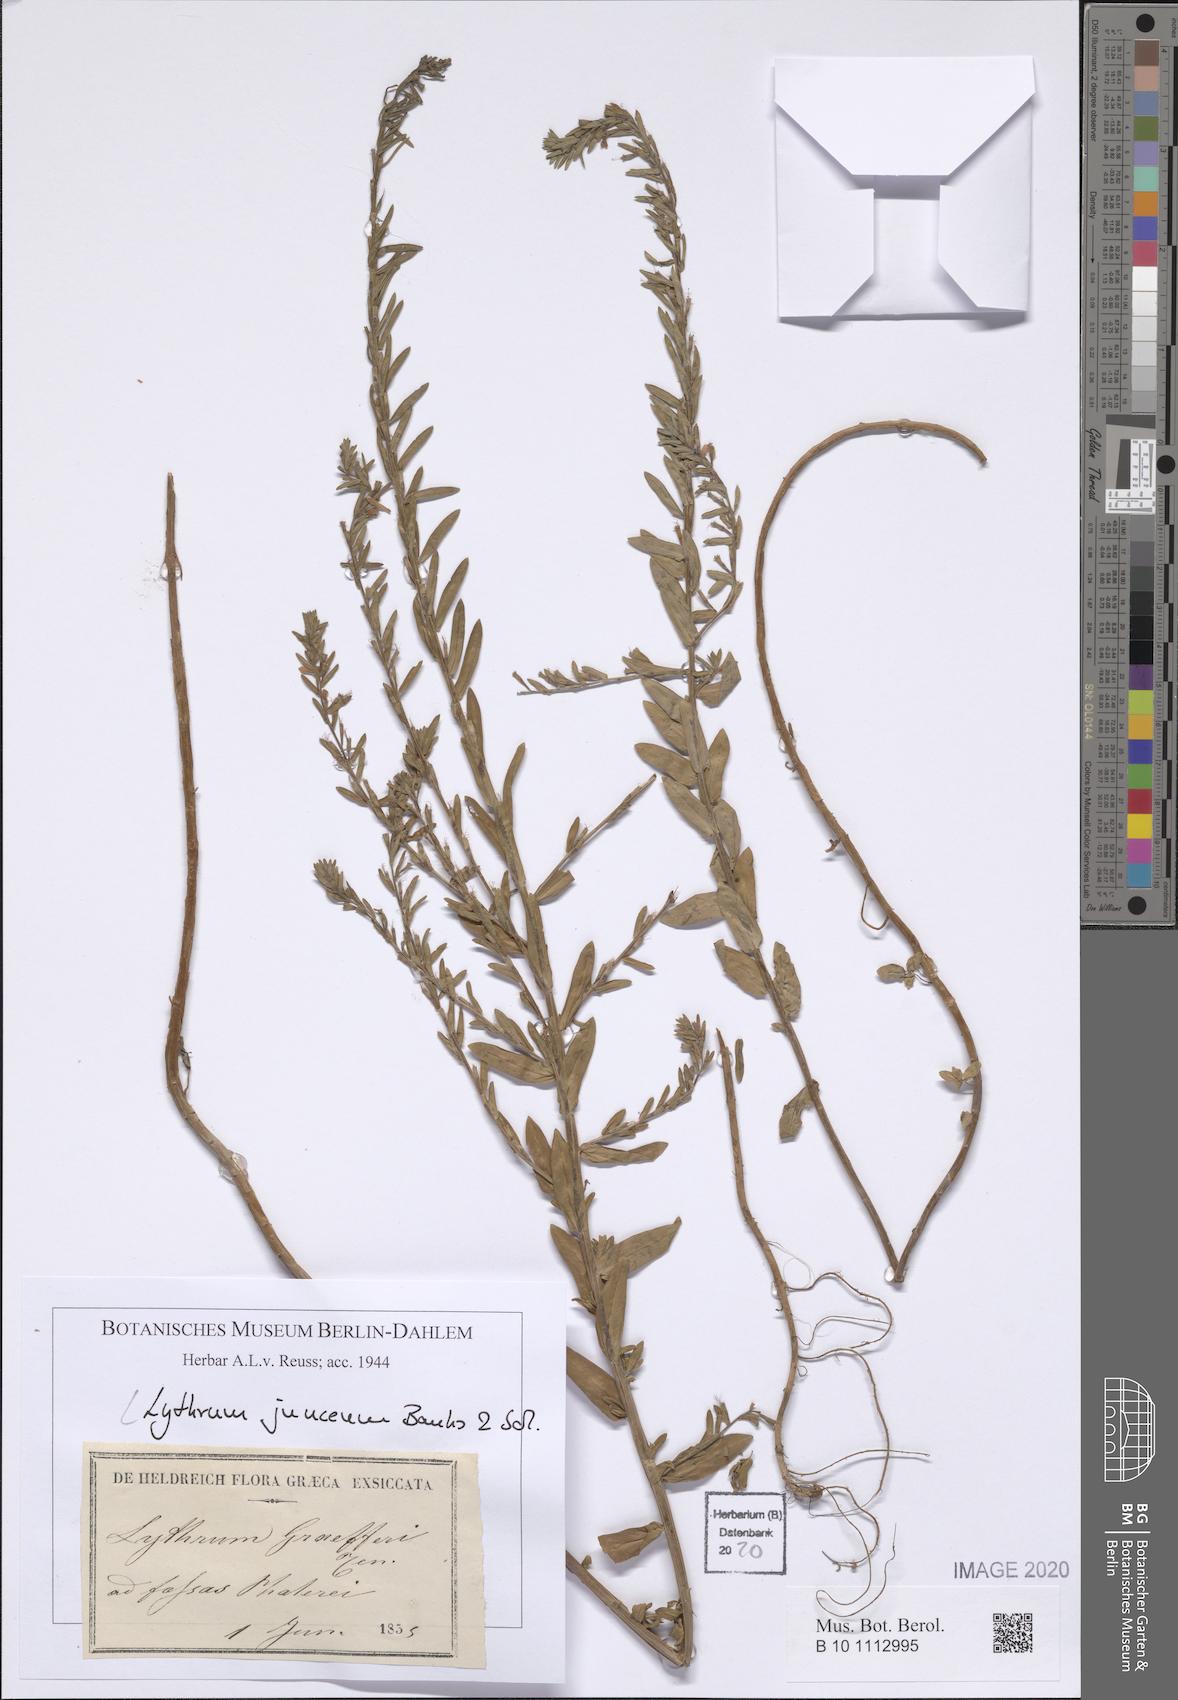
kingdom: Plantae
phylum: Tracheophyta
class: Magnoliopsida
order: Myrtales
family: Lythraceae
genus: Lythrum
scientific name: Lythrum junceum
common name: False grass-poly
